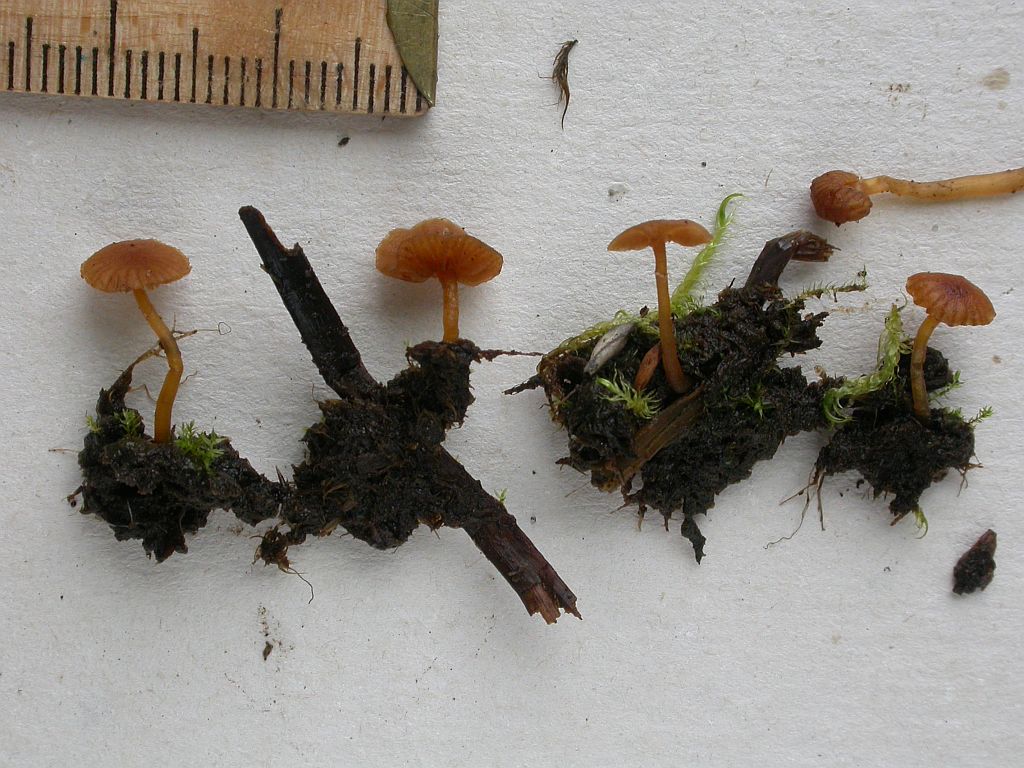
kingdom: Fungi
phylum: Basidiomycota
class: Agaricomycetes
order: Agaricales
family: Hymenogastraceae
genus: Galerina
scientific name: Galerina jaapii
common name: hvidbæltet hjelmhat
